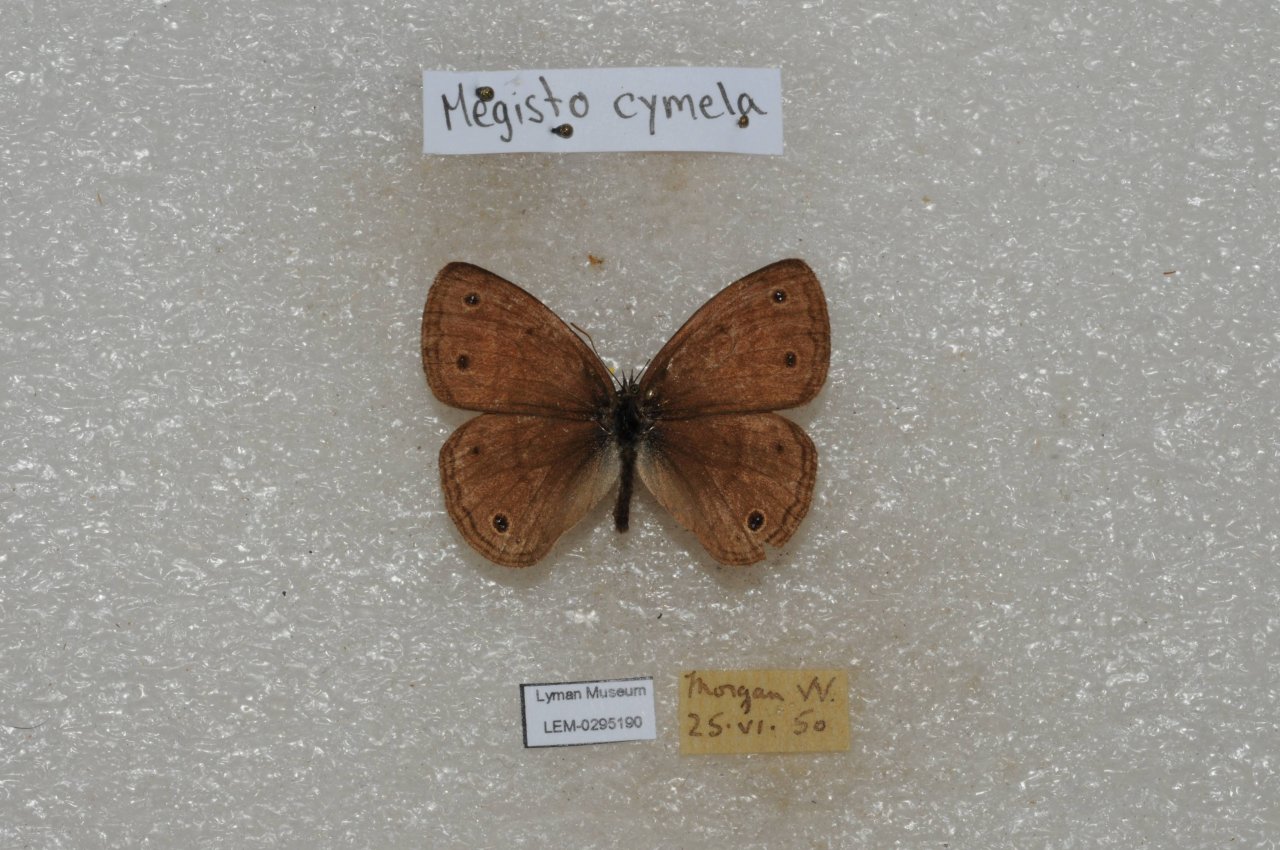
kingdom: Animalia
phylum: Arthropoda
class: Insecta
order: Lepidoptera
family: Nymphalidae
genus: Euptychia
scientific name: Euptychia cymela
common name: Little Wood Satyr
